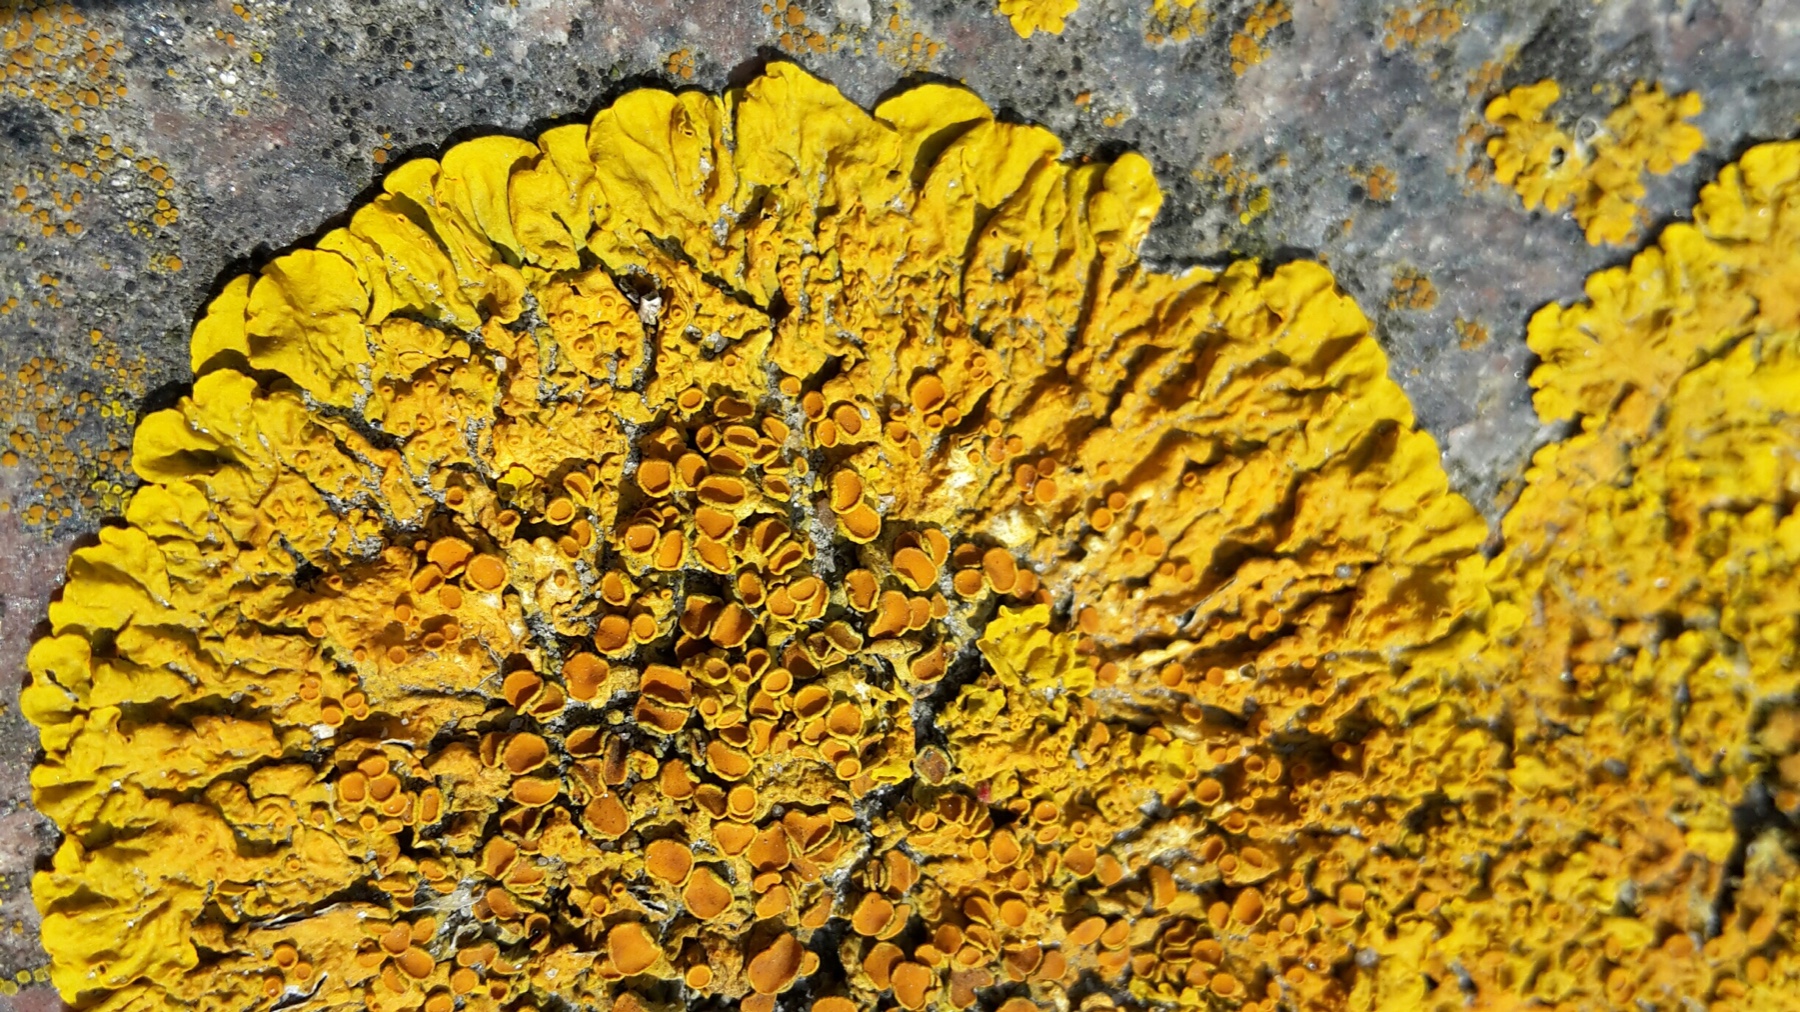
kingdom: Fungi
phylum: Ascomycota
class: Lecanoromycetes
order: Teloschistales
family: Teloschistaceae
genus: Xanthoria
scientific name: Xanthoria parietina
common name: almindelig væggelav
